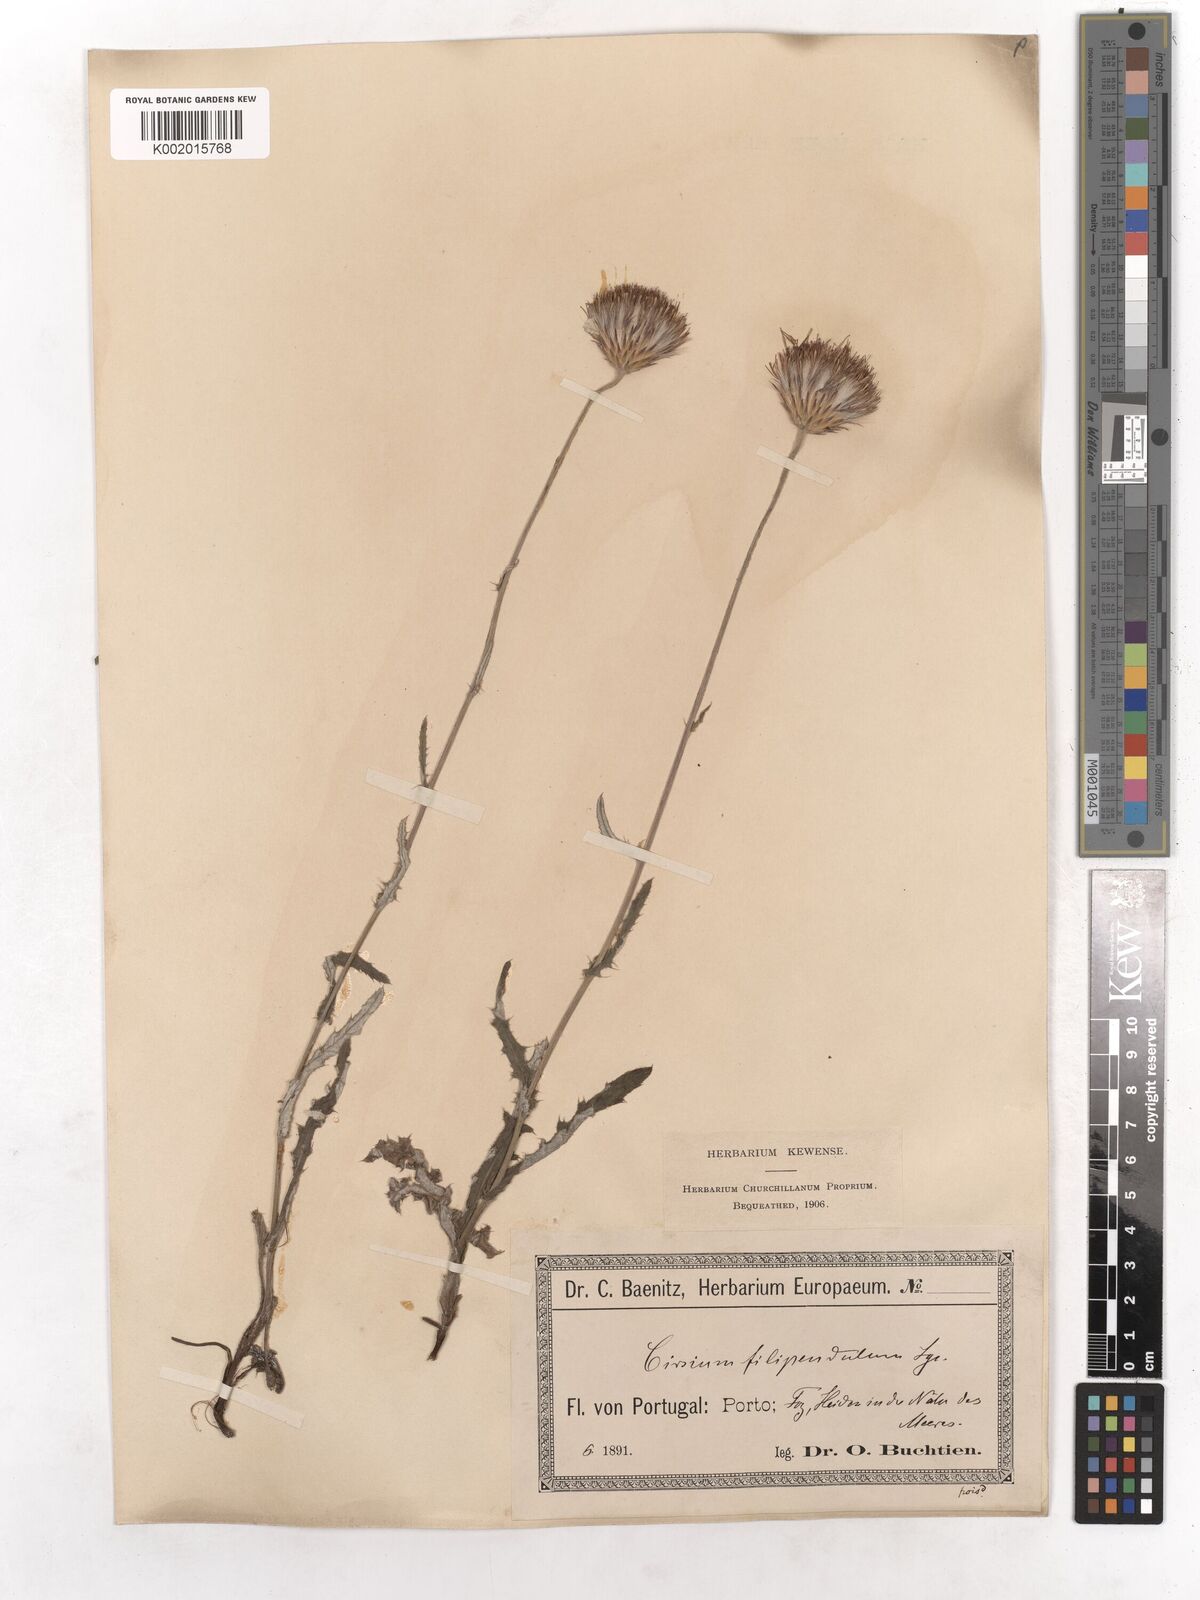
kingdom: Plantae
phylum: Tracheophyta
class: Magnoliopsida
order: Asterales
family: Asteraceae
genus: Cirsium
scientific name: Cirsium filipendulum
